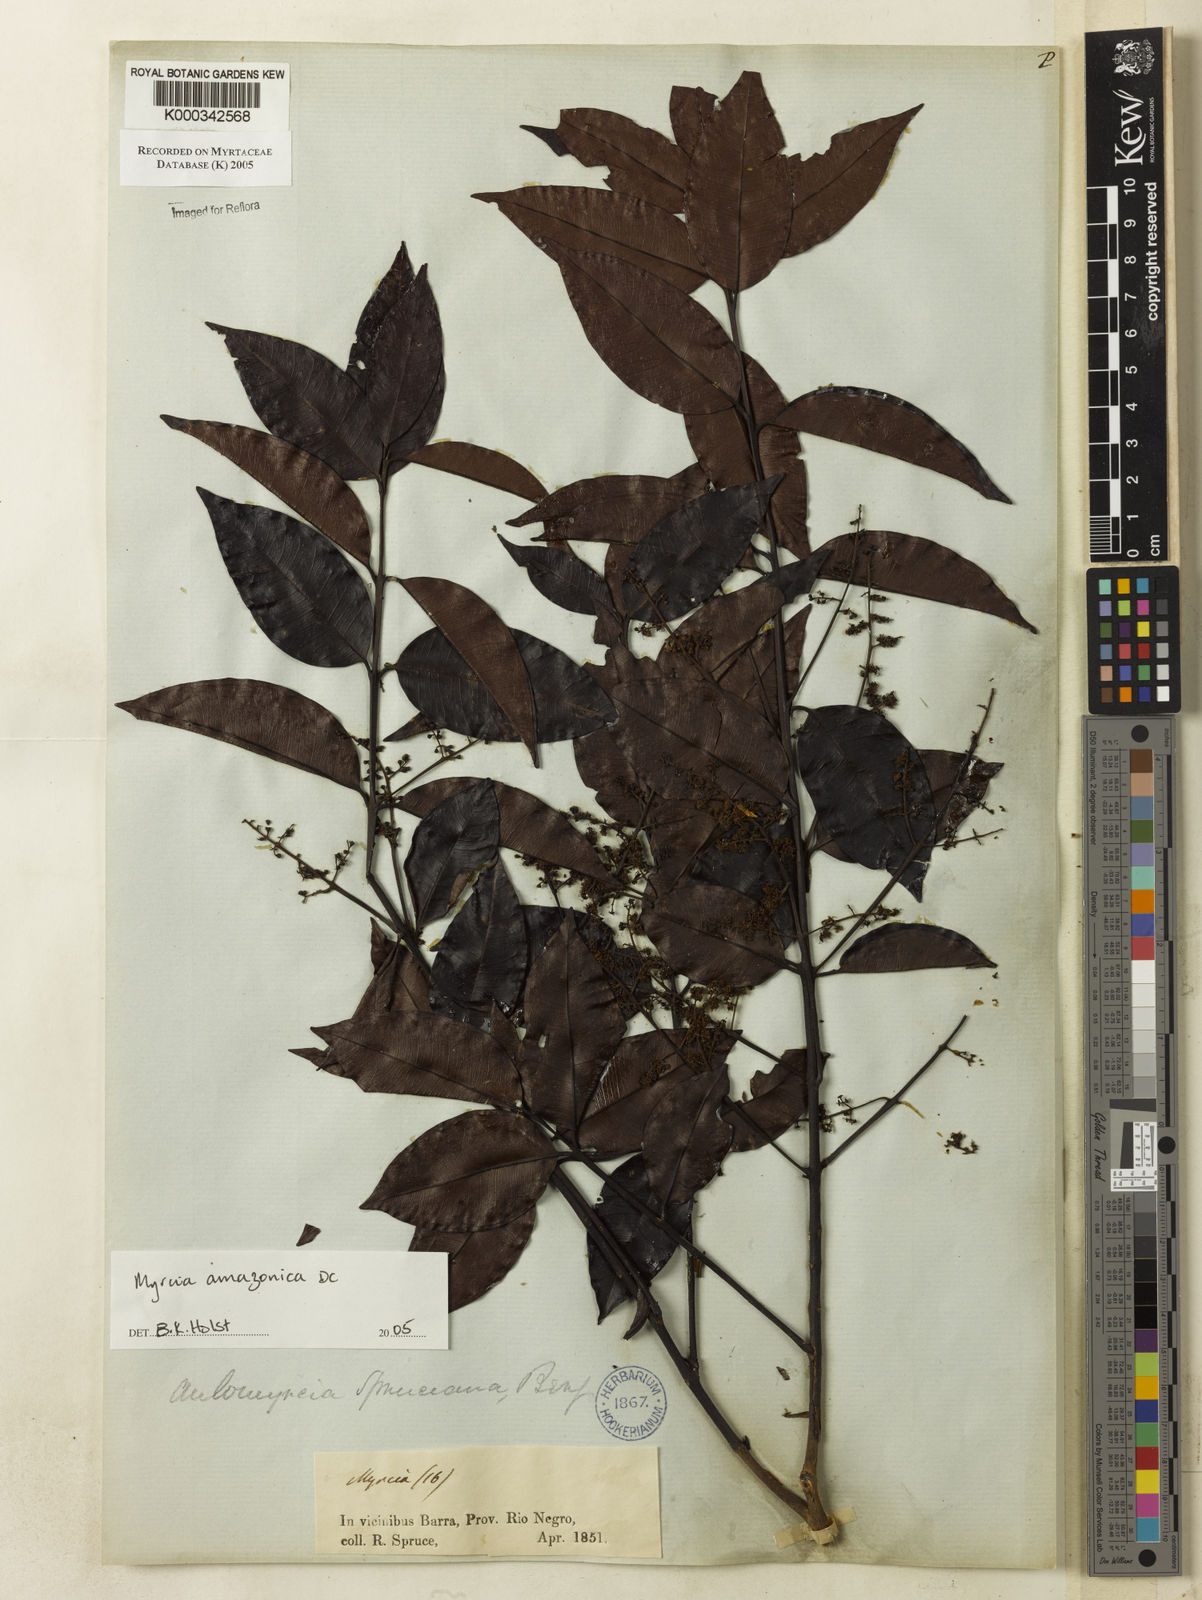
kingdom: Plantae
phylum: Tracheophyta
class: Magnoliopsida
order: Myrtales
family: Myrtaceae
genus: Myrcia
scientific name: Myrcia amazonica
